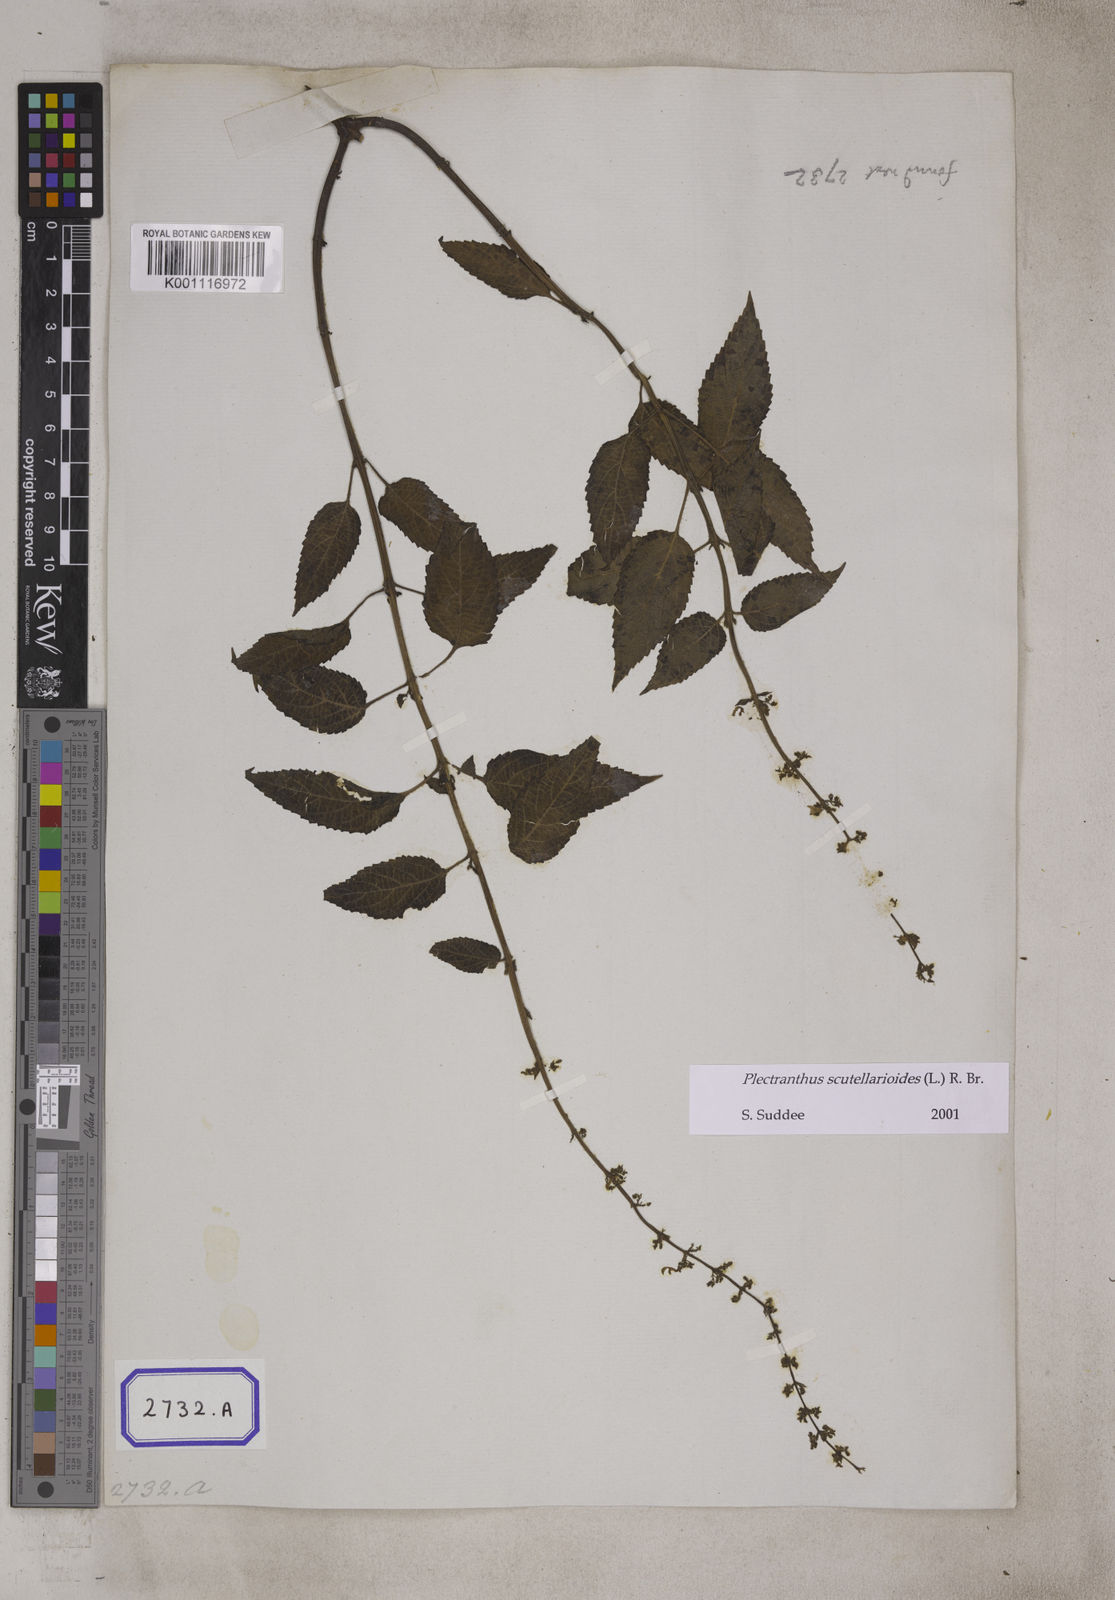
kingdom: Plantae
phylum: Tracheophyta
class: Magnoliopsida
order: Lamiales
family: Lamiaceae
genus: Coleus
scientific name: Coleus scutellarioides
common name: Coleus
